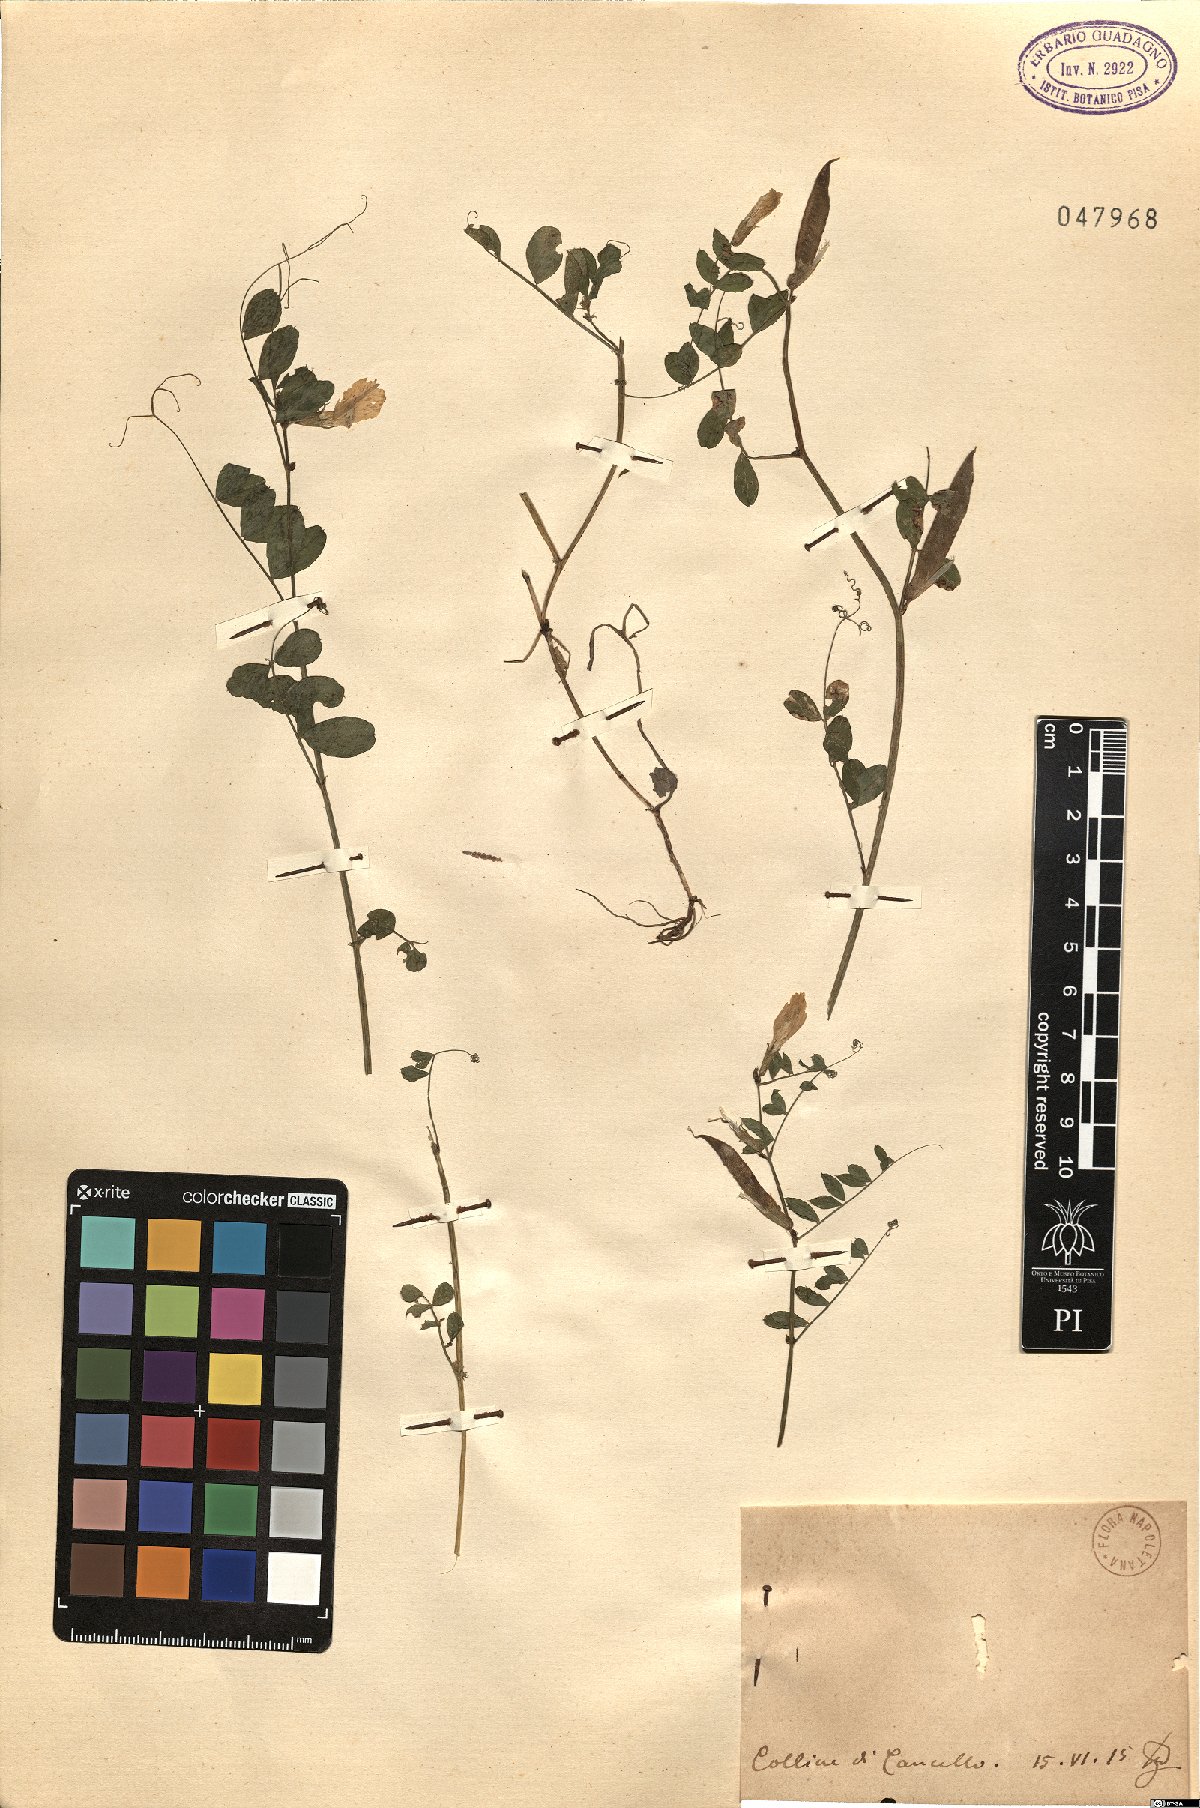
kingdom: Plantae
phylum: Tracheophyta
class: Magnoliopsida
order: Fabales
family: Fabaceae
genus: Vicia
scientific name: Vicia
